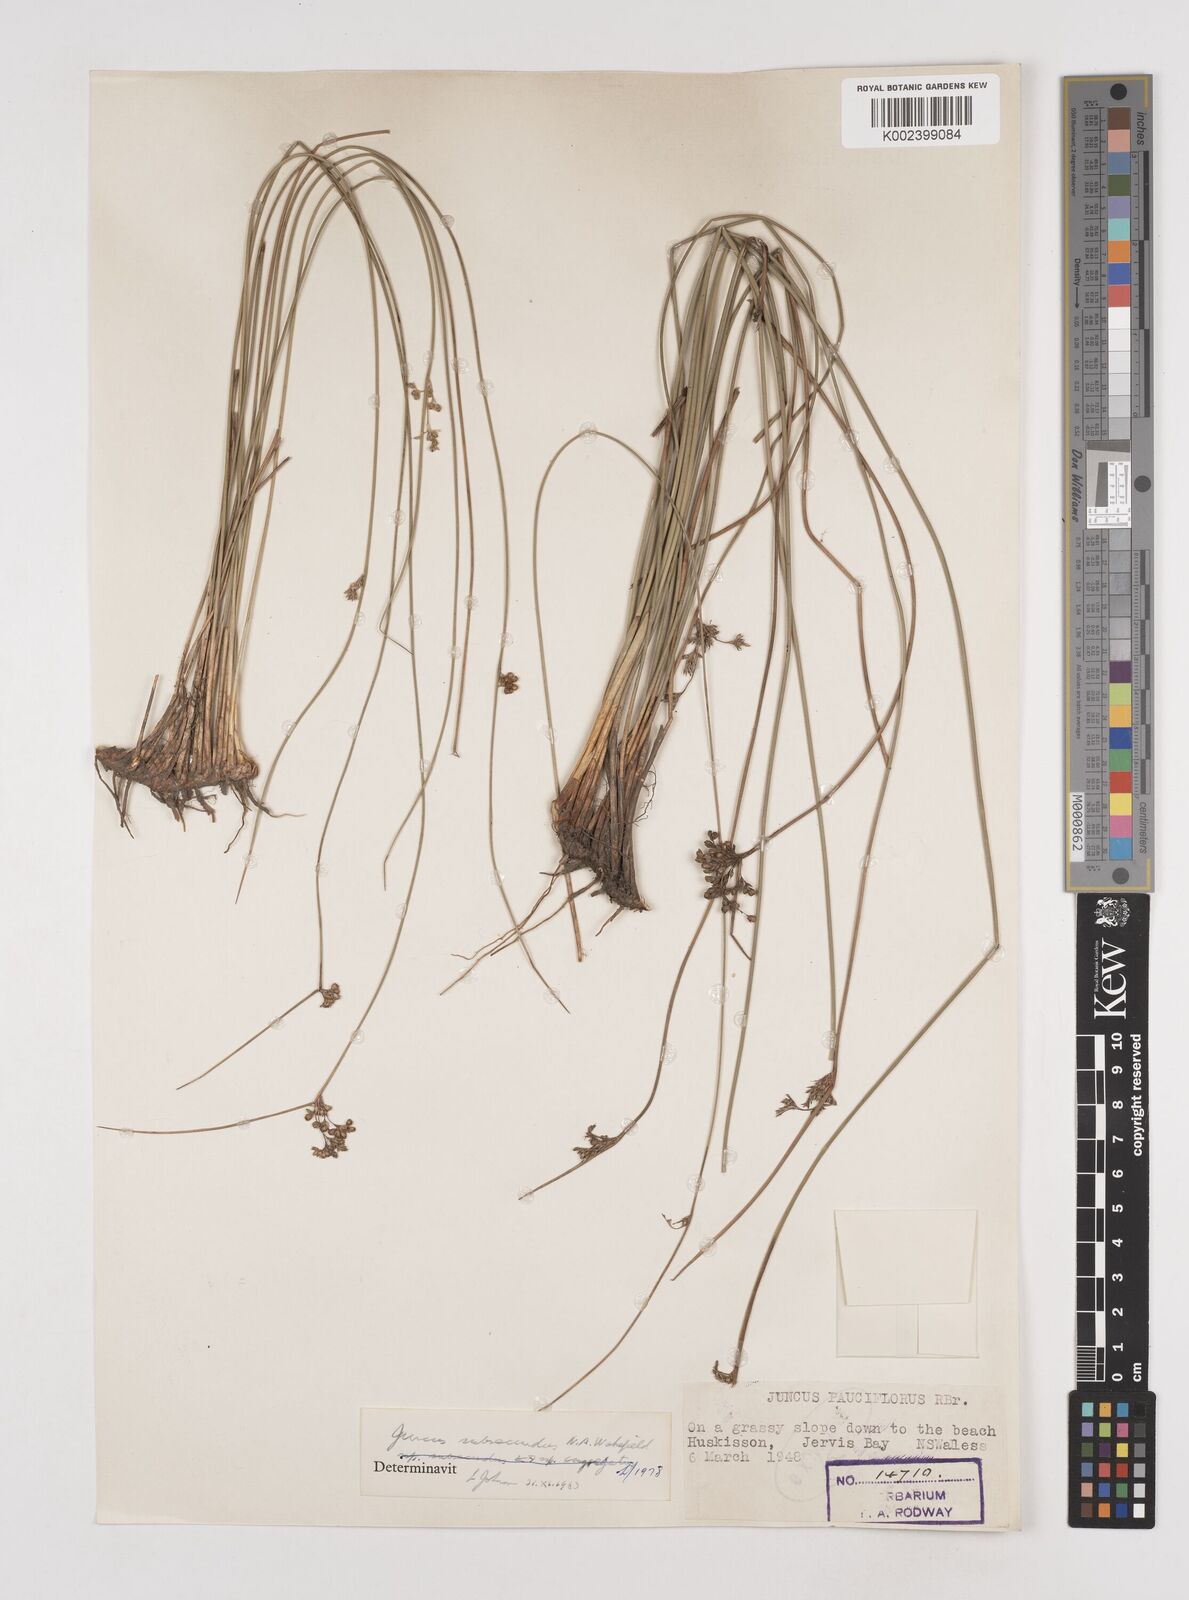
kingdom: Plantae
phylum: Tracheophyta
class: Liliopsida
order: Poales
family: Juncaceae
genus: Juncus
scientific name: Juncus subsecundus
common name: Fingered rush
